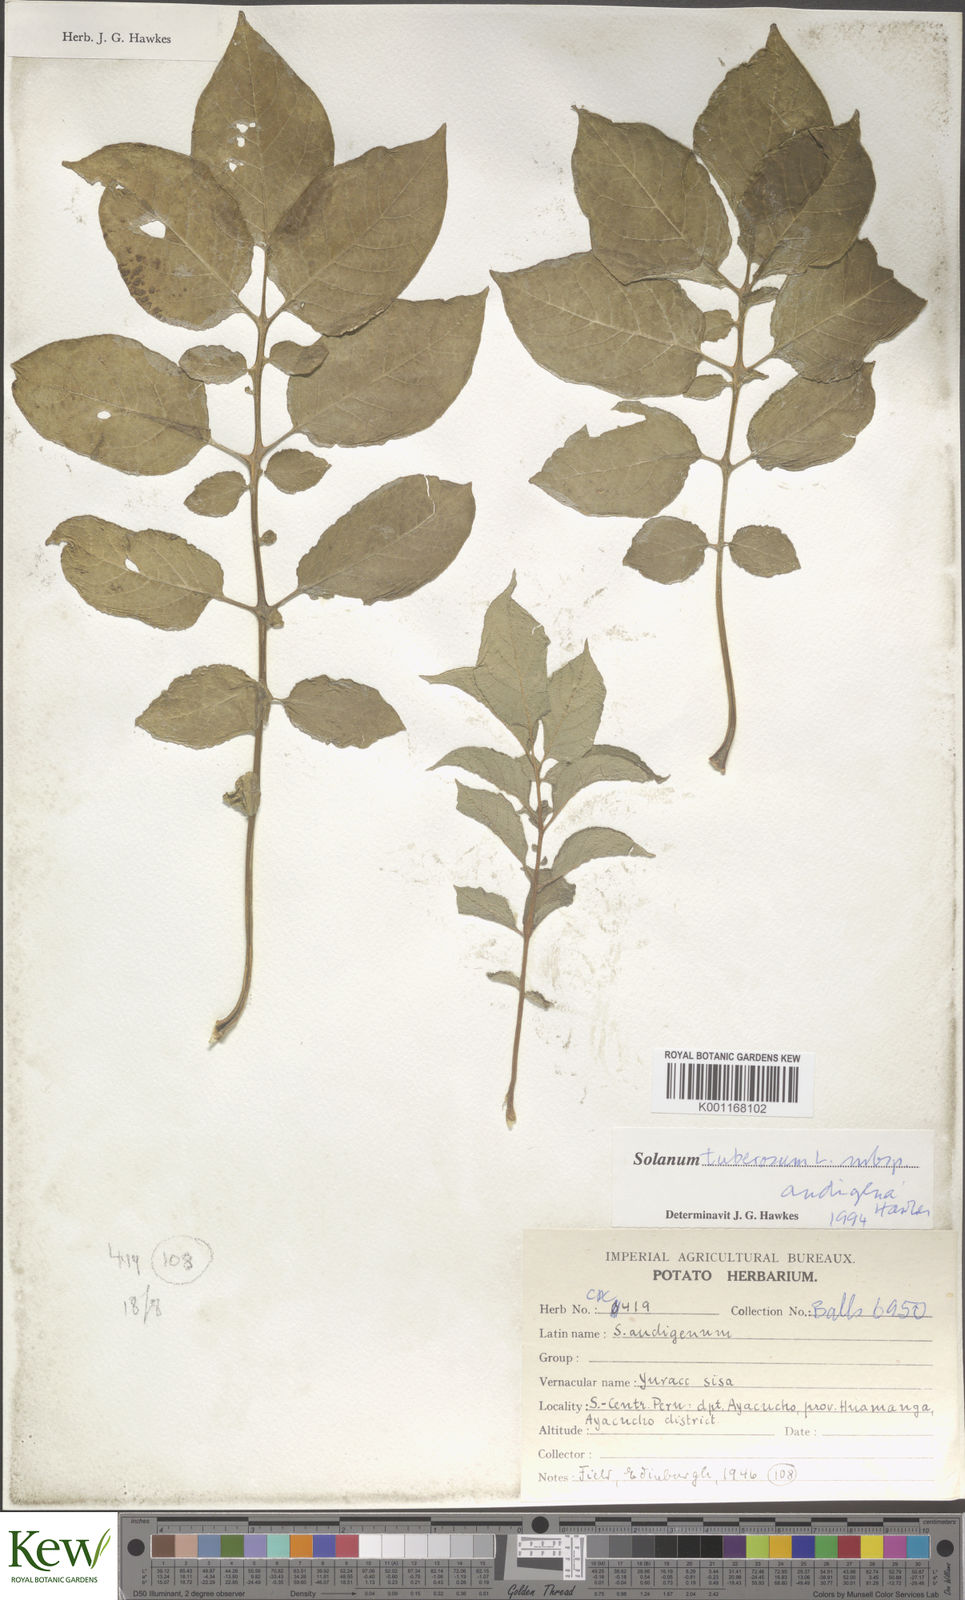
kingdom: Plantae
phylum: Tracheophyta
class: Magnoliopsida
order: Solanales
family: Solanaceae
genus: Solanum
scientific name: Solanum tuberosum
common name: Potato
